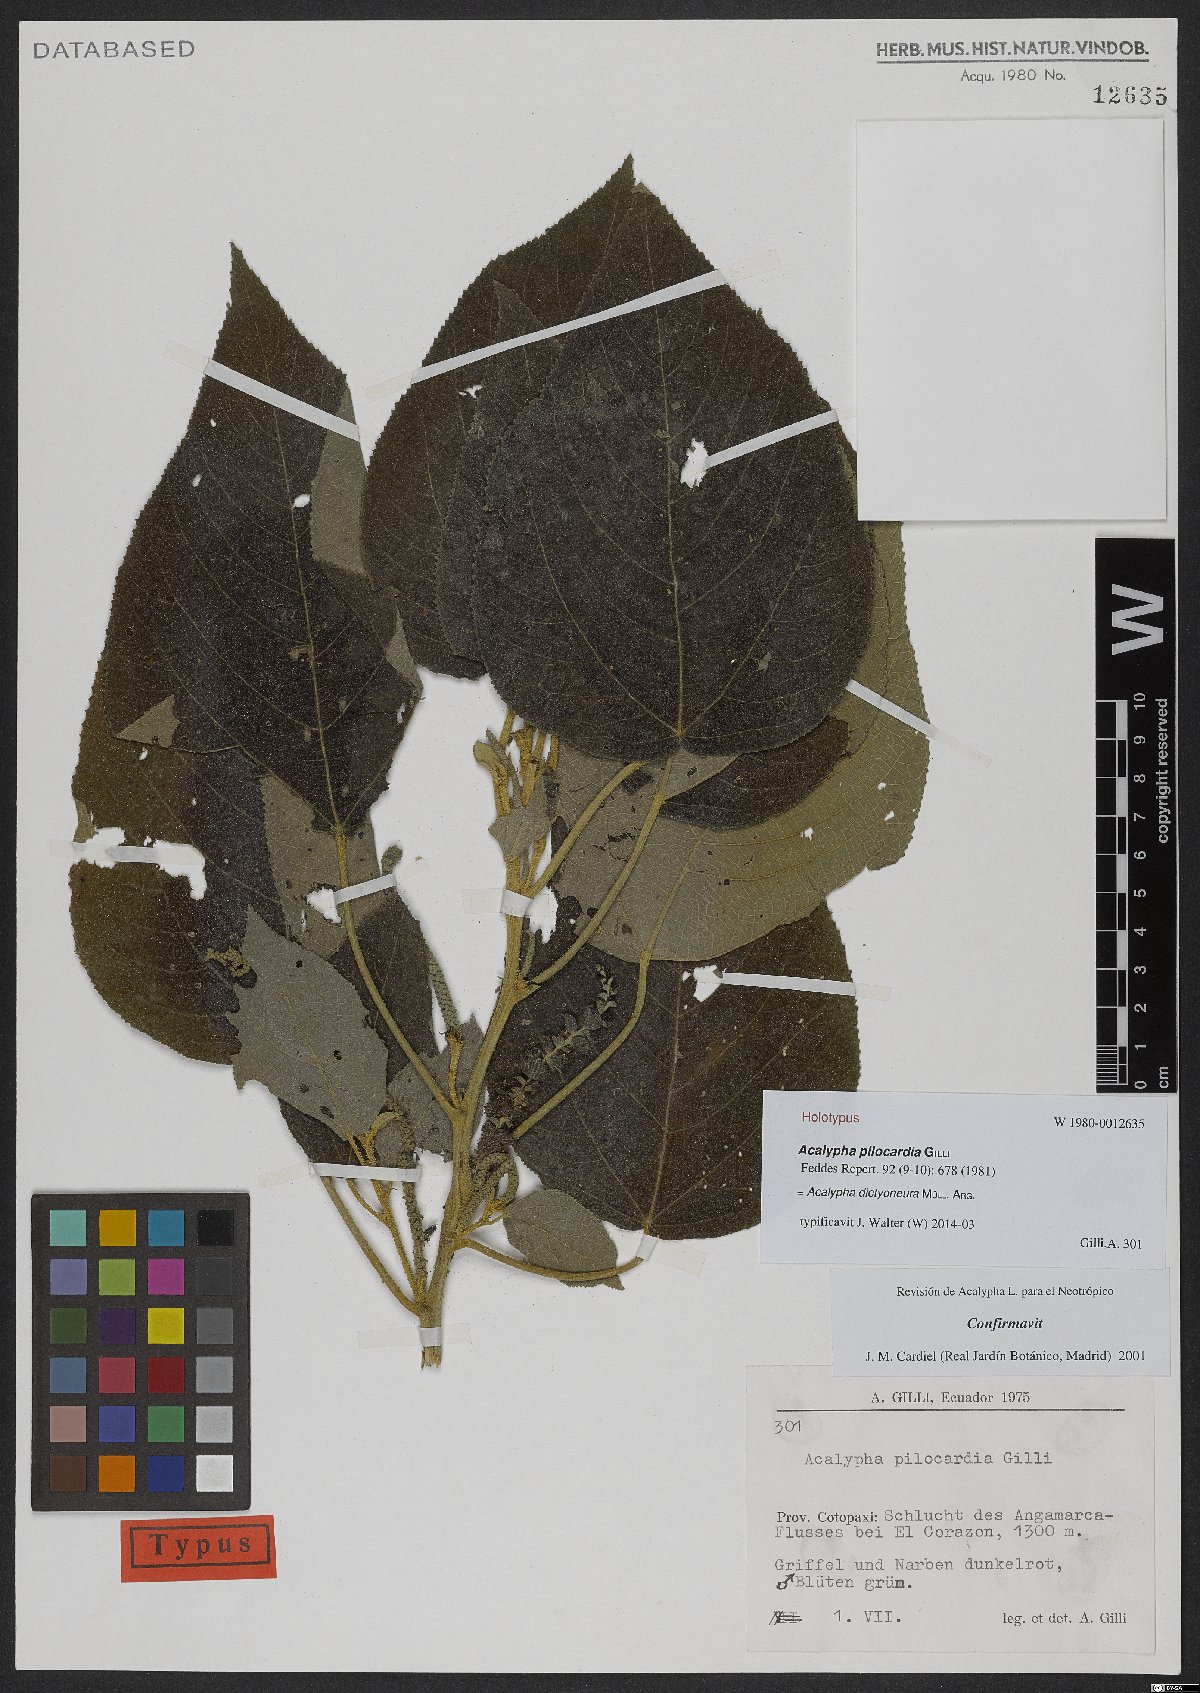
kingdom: Plantae
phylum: Tracheophyta
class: Magnoliopsida
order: Malpighiales
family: Euphorbiaceae
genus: Acalypha
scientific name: Acalypha dictyoneura
